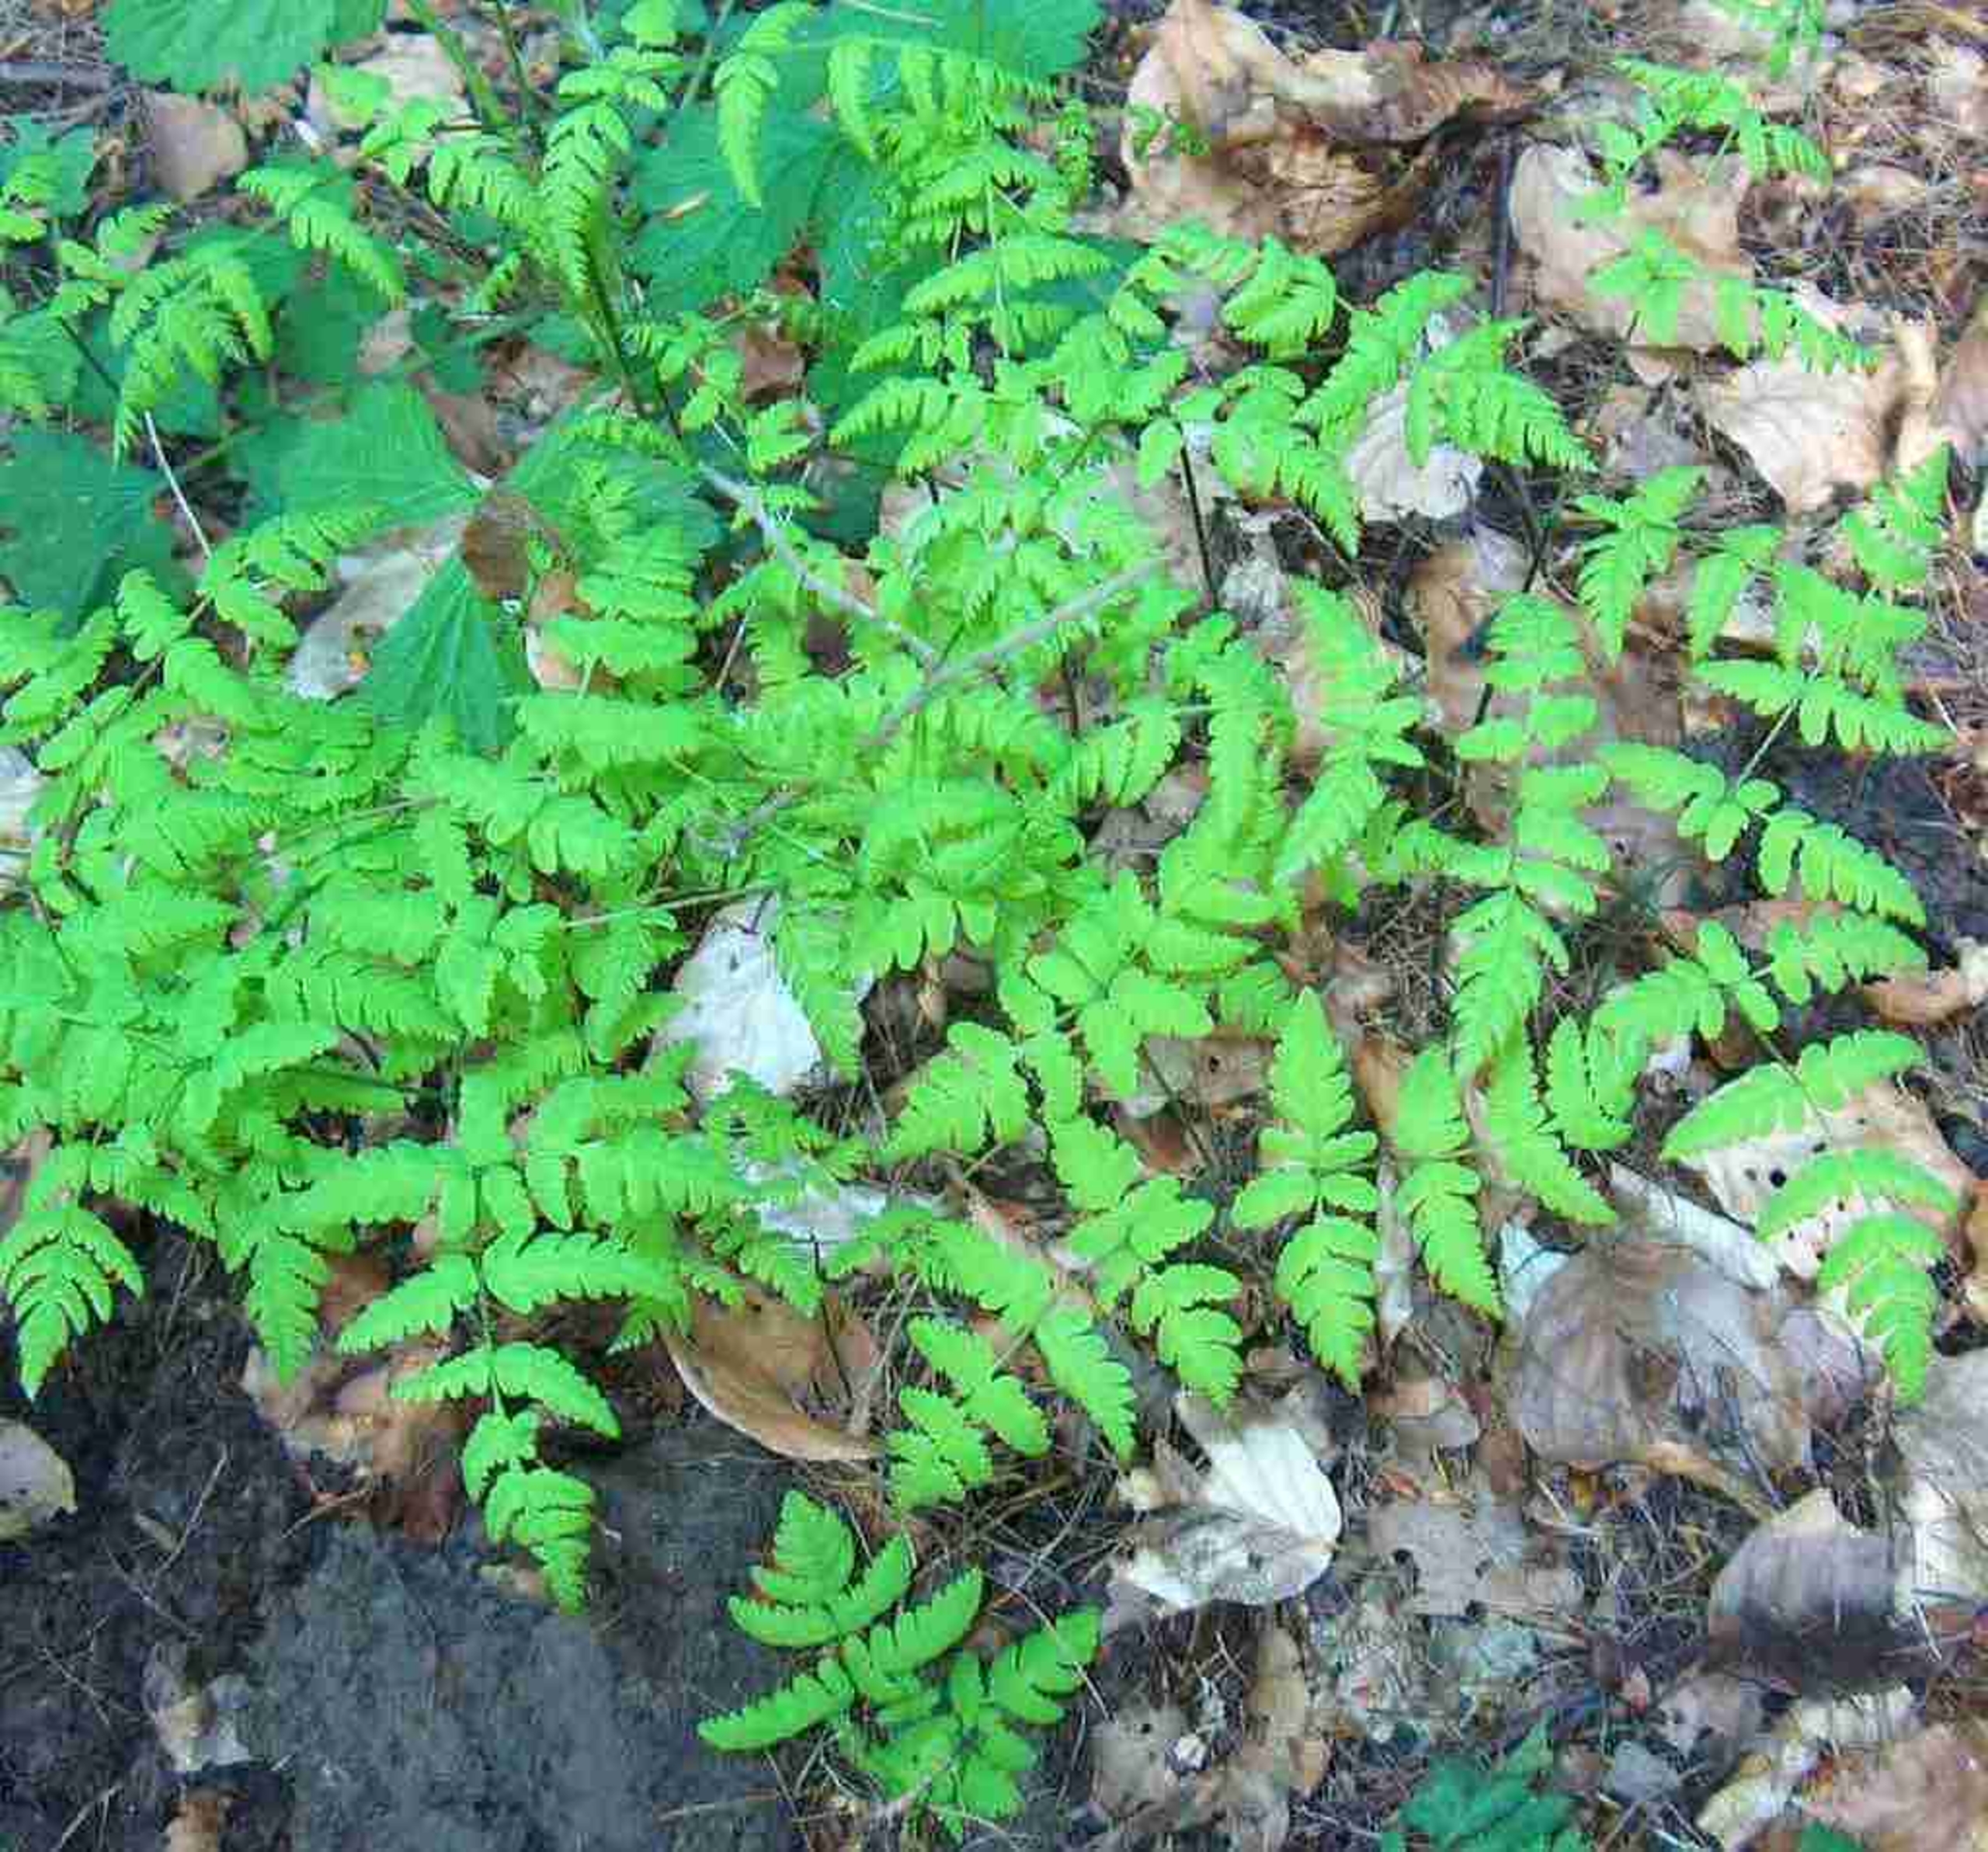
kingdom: Plantae
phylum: Tracheophyta
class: Polypodiopsida
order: Polypodiales
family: Cystopteridaceae
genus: Gymnocarpium
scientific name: Gymnocarpium dryopteris
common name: Tredelt egebregne
